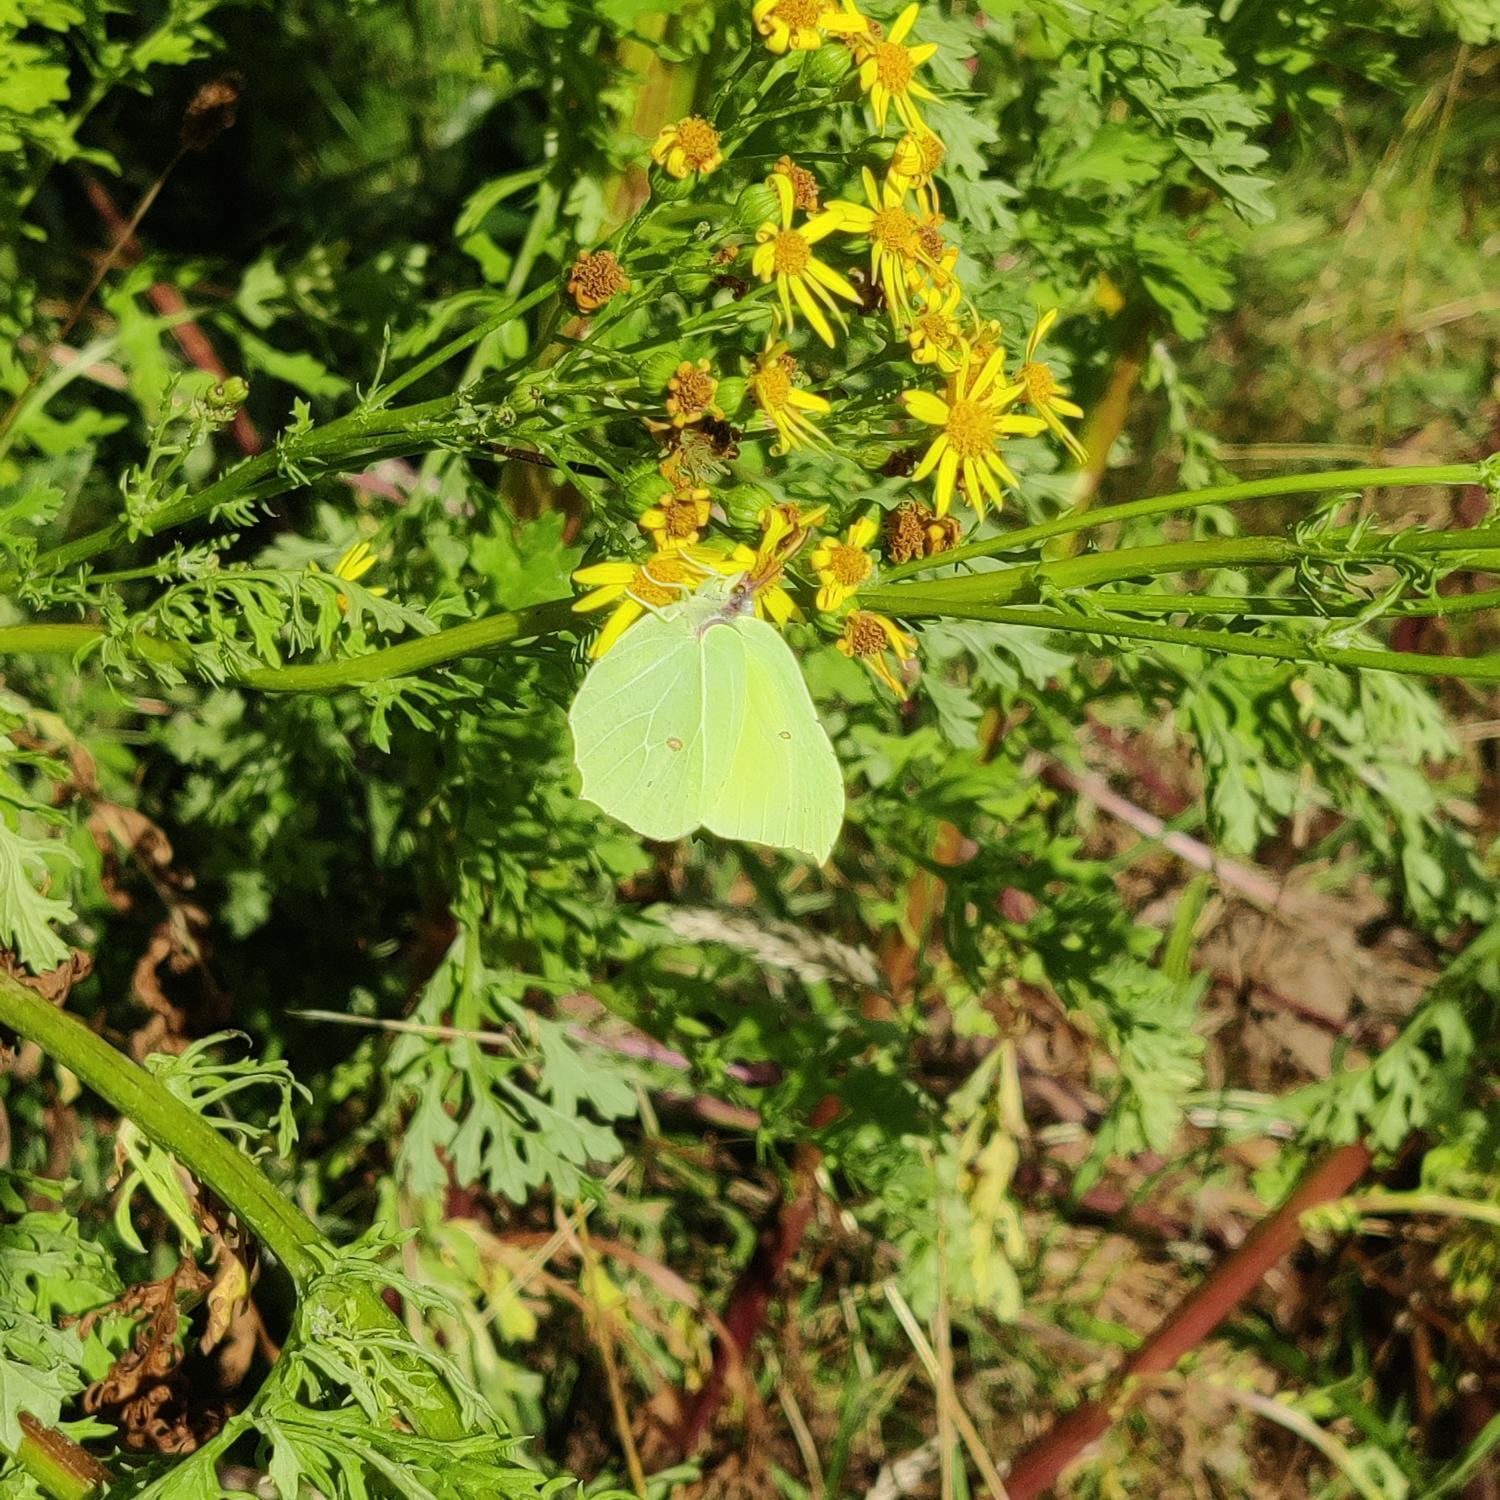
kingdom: Animalia
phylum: Arthropoda
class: Insecta
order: Lepidoptera
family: Pieridae
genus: Gonepteryx
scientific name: Gonepteryx rhamni
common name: Citronsommerfugl
